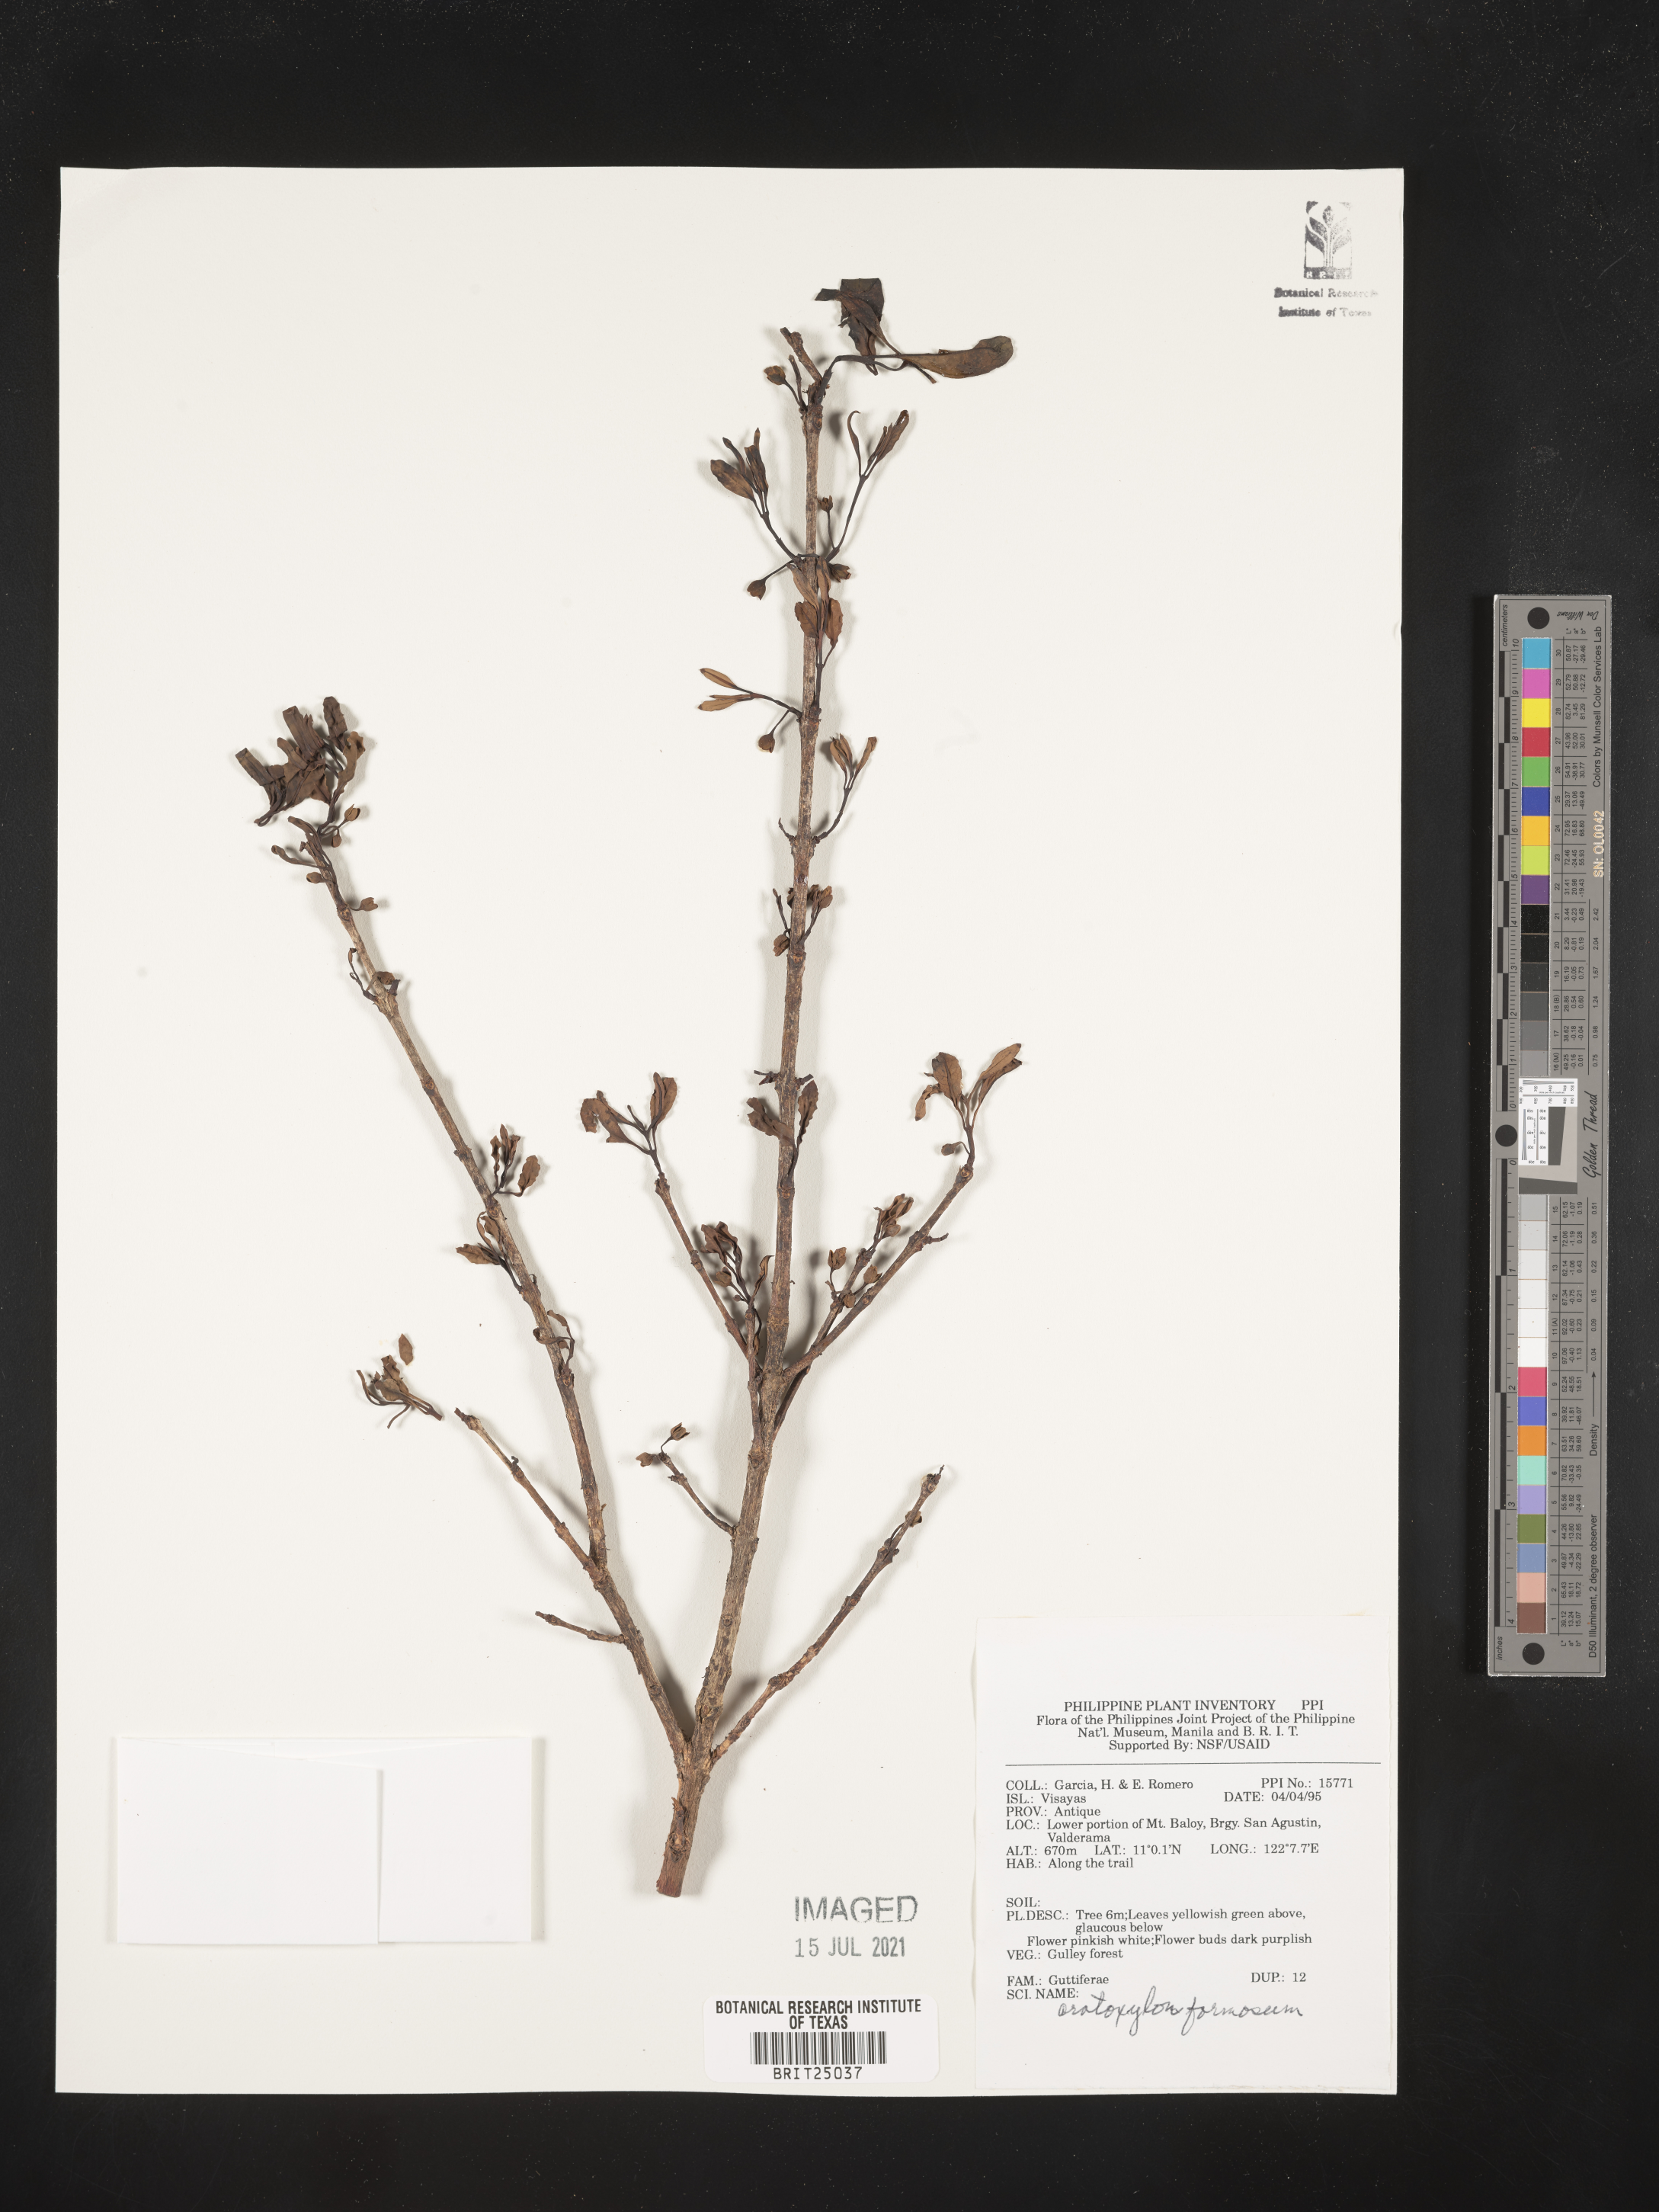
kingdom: Plantae
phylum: Tracheophyta
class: Magnoliopsida
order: Malpighiales
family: Hypericaceae
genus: Cratoxylum
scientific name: Cratoxylum formosum
